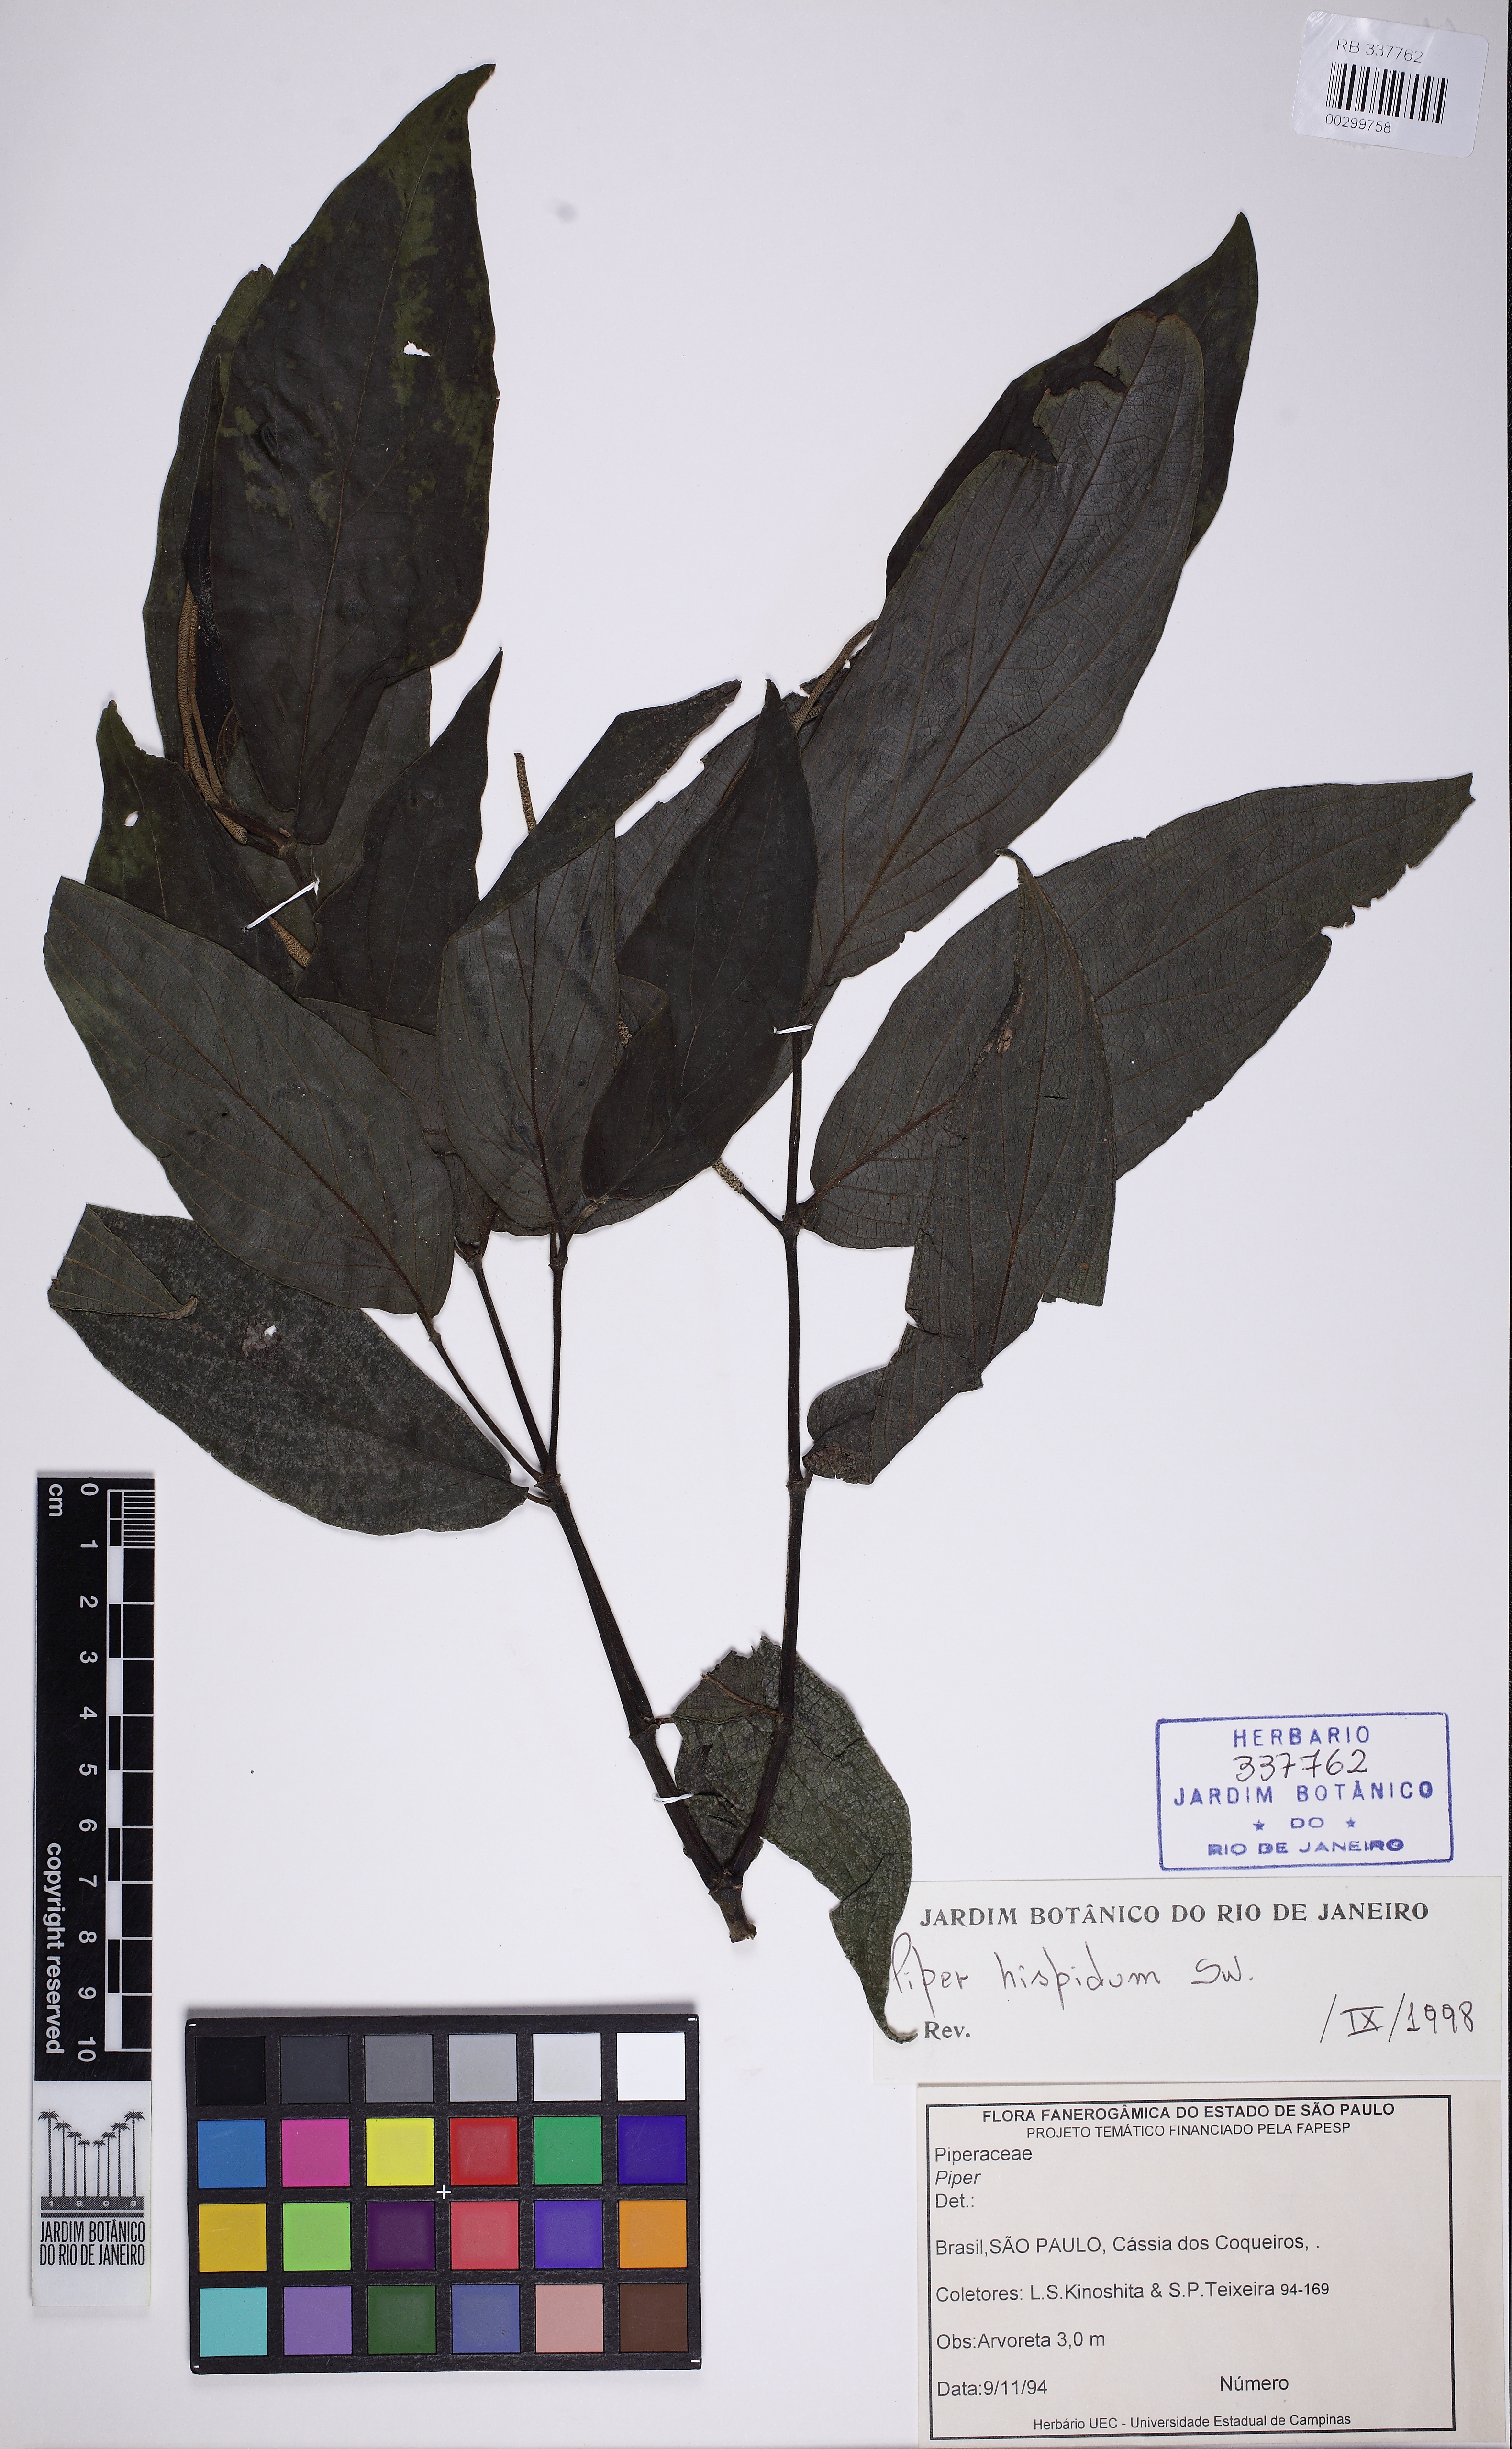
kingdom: Plantae
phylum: Tracheophyta
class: Magnoliopsida
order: Piperales
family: Piperaceae
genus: Piper
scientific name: Piper hispidum
